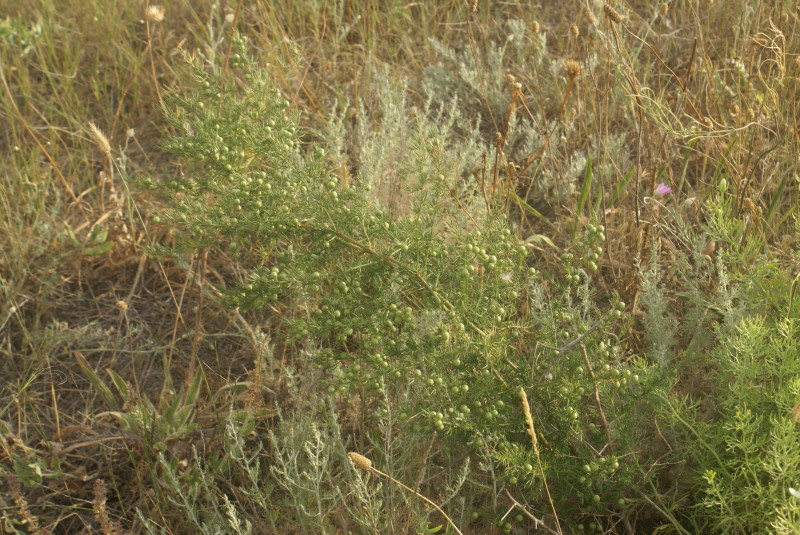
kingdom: Plantae
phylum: Tracheophyta
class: Liliopsida
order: Asparagales
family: Asparagaceae
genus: Asparagus
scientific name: Asparagus
